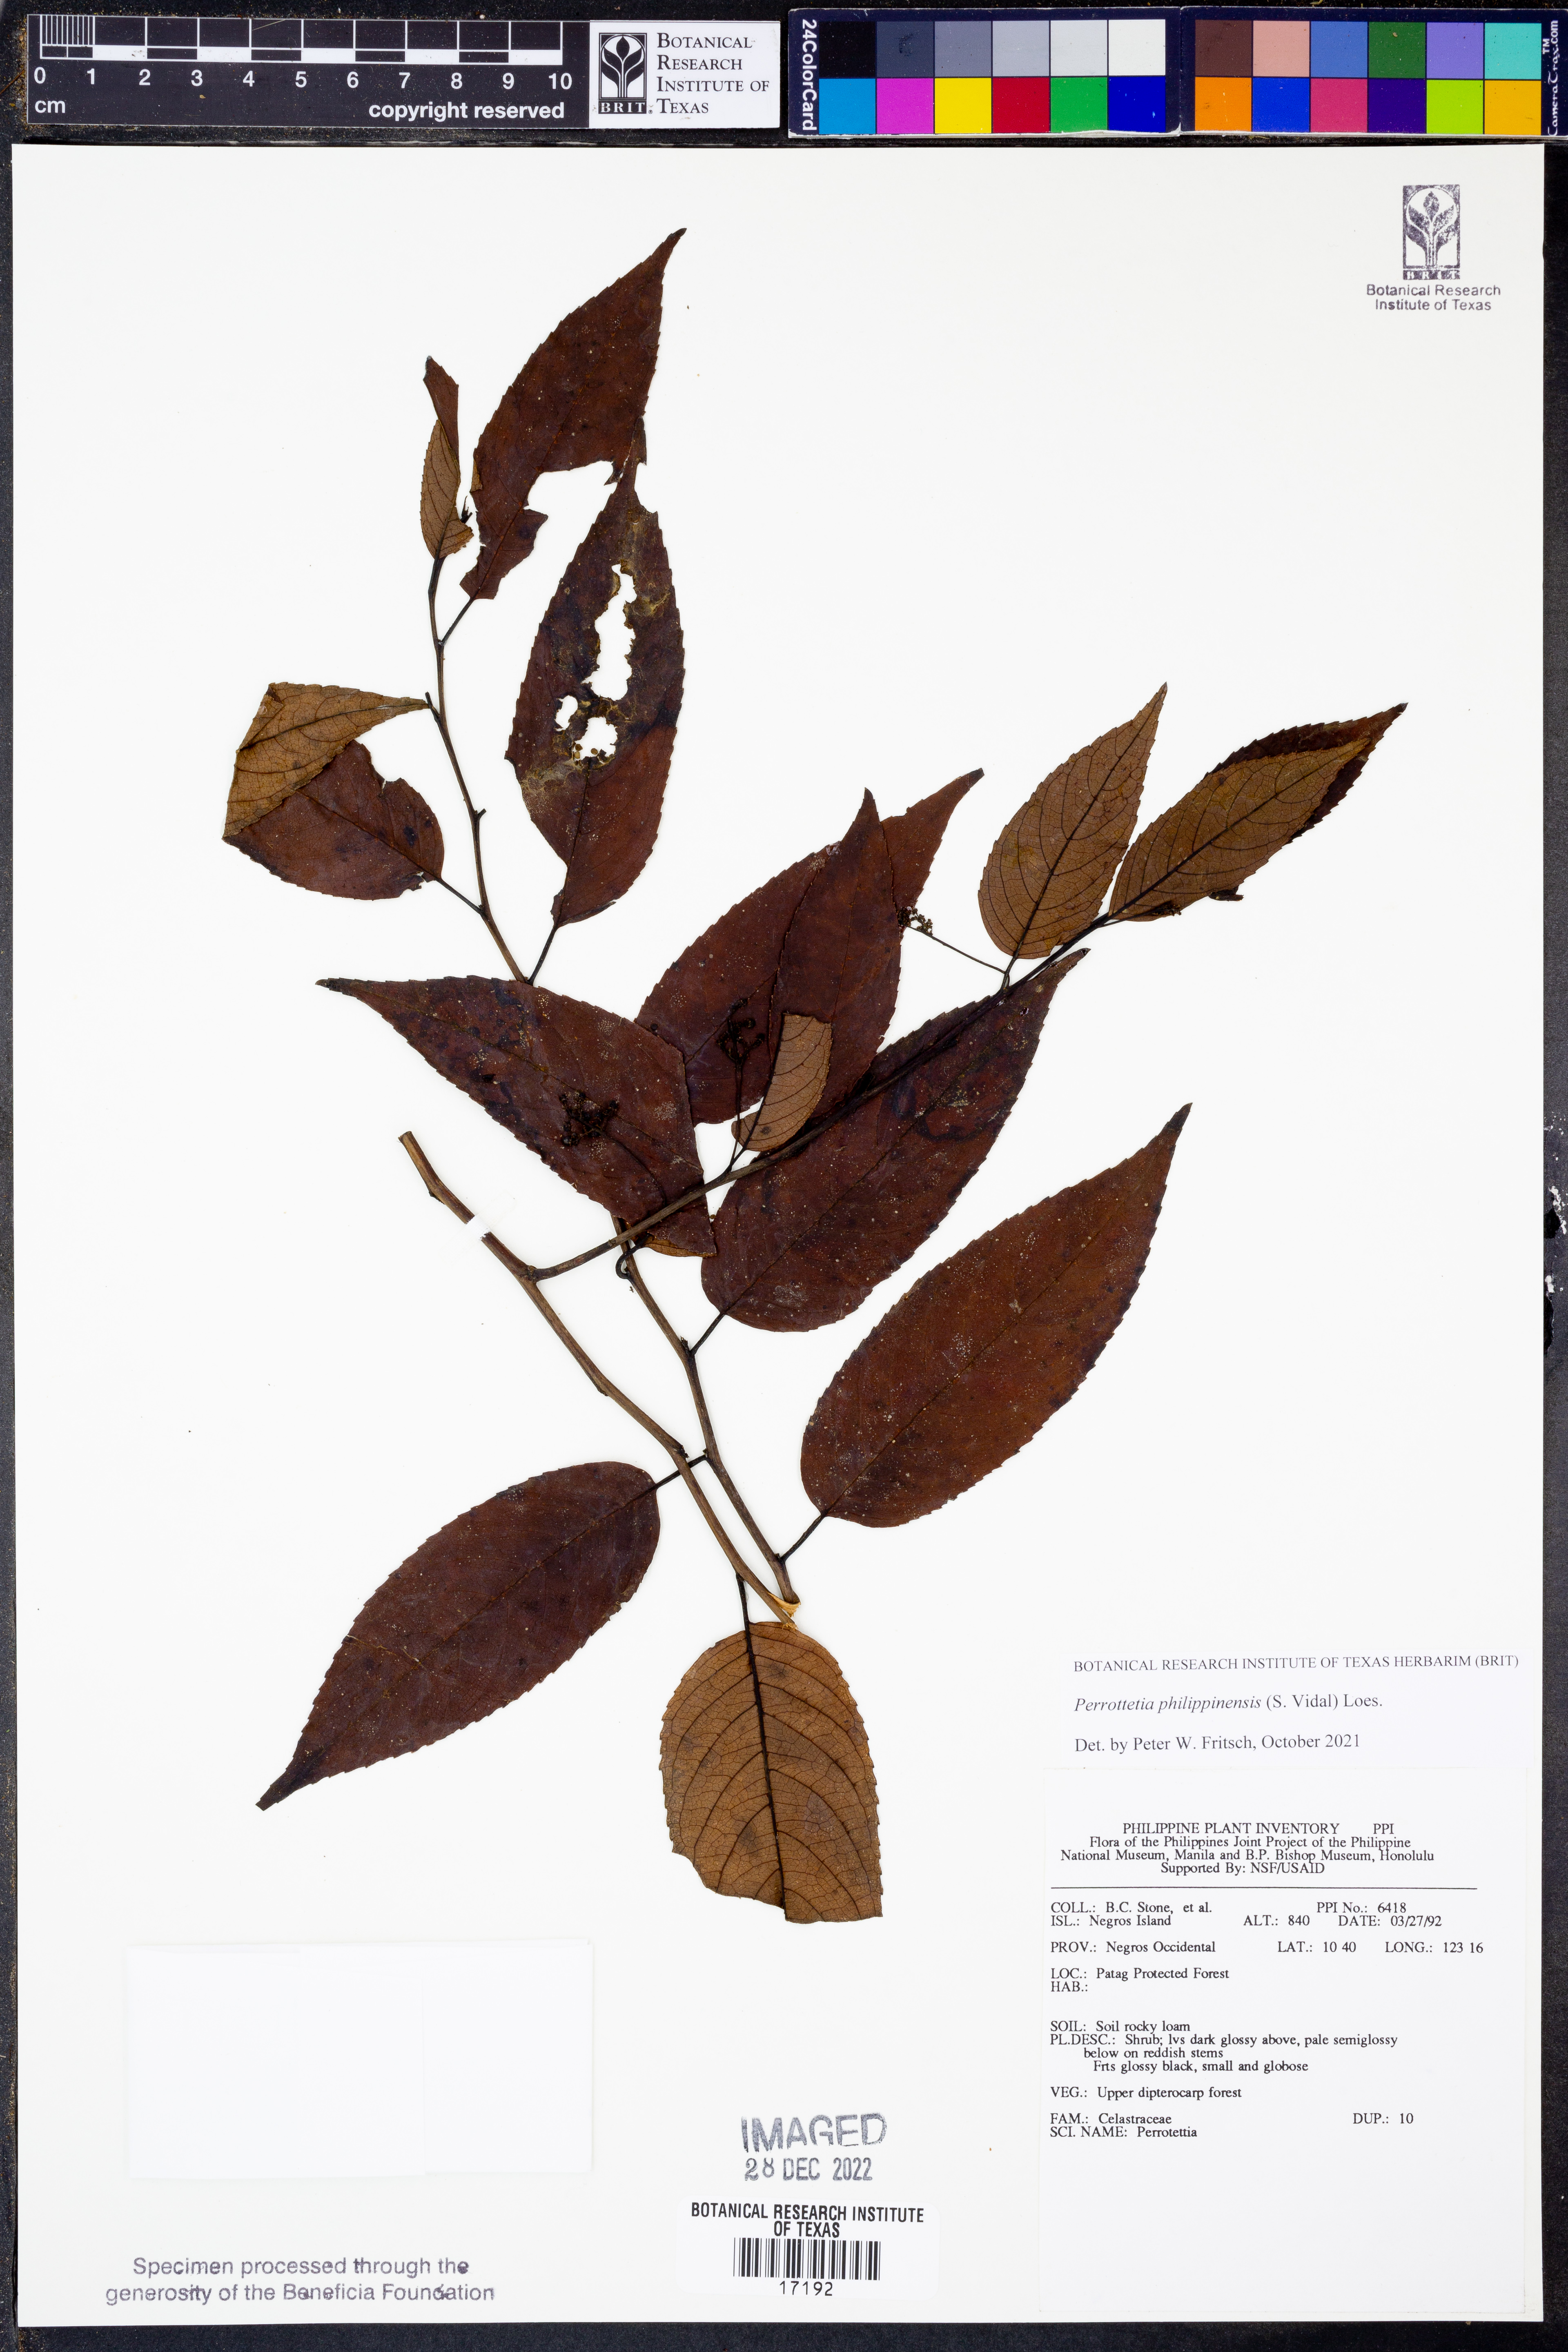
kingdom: Plantae
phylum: Tracheophyta
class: Magnoliopsida
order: Huerteales
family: Dipentodontaceae
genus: Perrottetia
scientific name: Perrottetia
